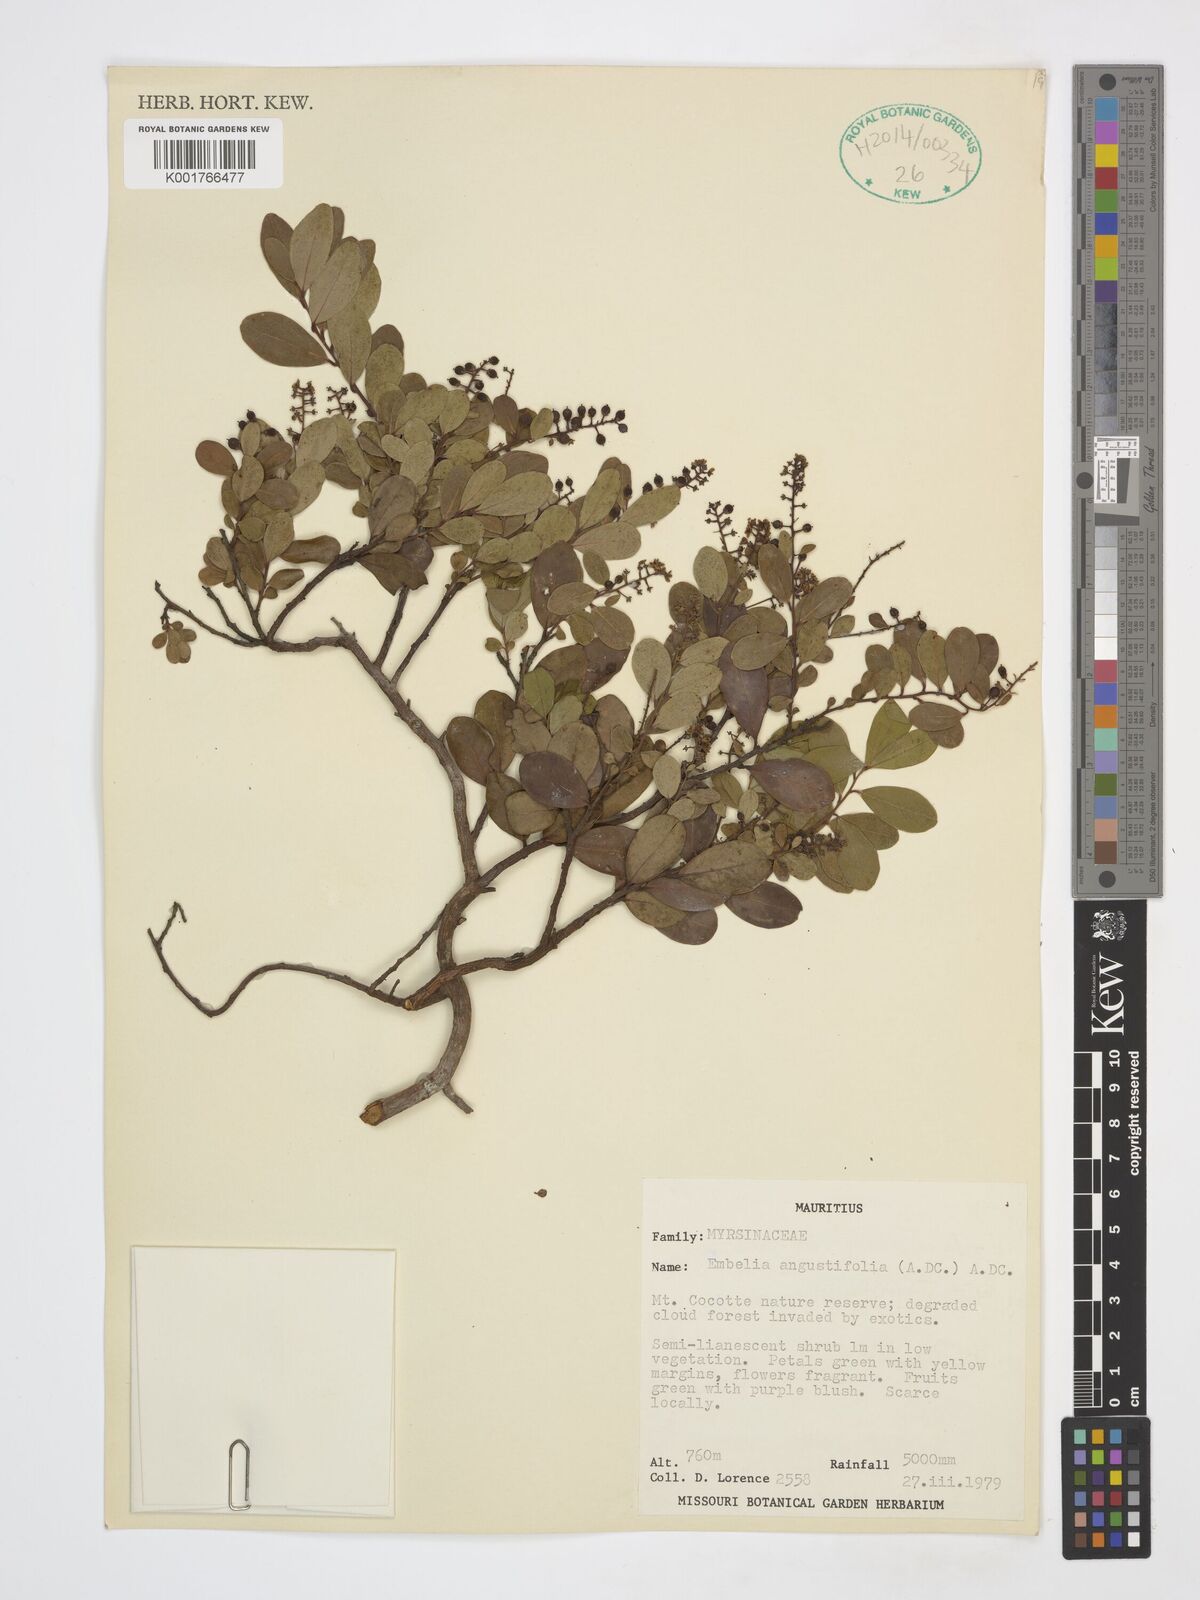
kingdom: Plantae
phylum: Tracheophyta
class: Magnoliopsida
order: Ericales
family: Primulaceae
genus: Embelia
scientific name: Embelia angustifolia
